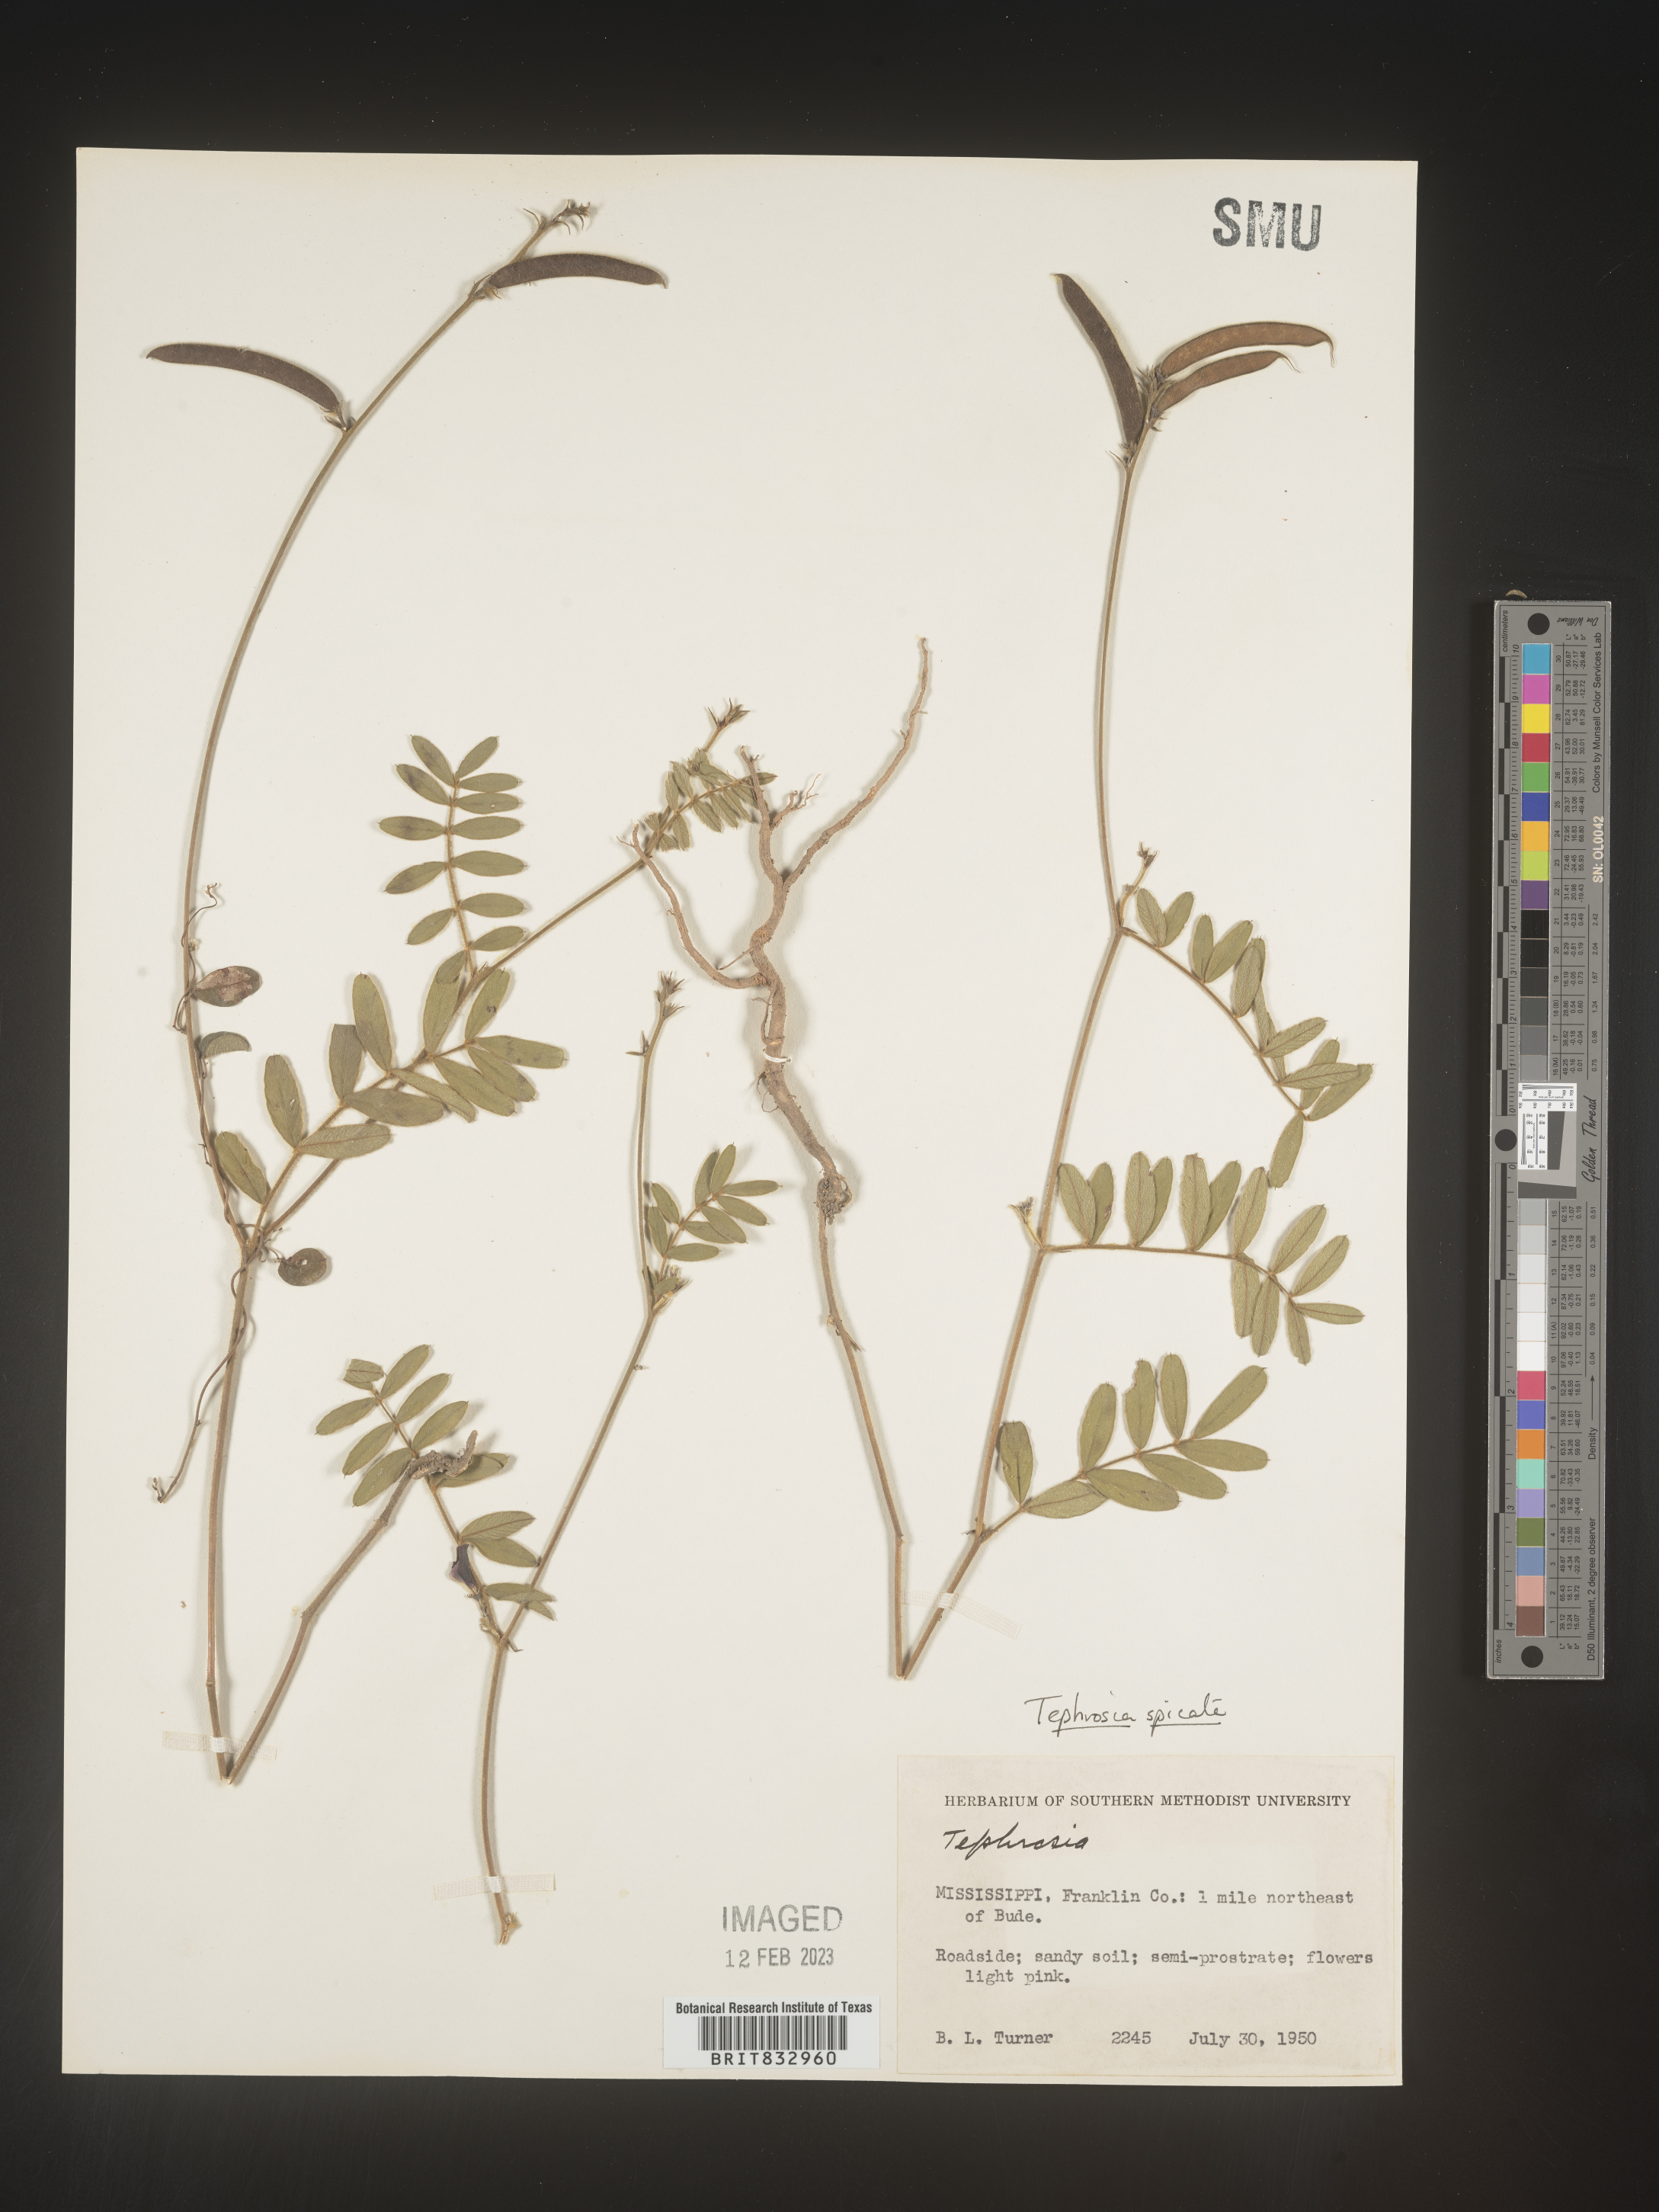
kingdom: Plantae
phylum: Tracheophyta
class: Magnoliopsida
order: Fabales
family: Fabaceae
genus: Tephrosia
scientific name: Tephrosia spicata
